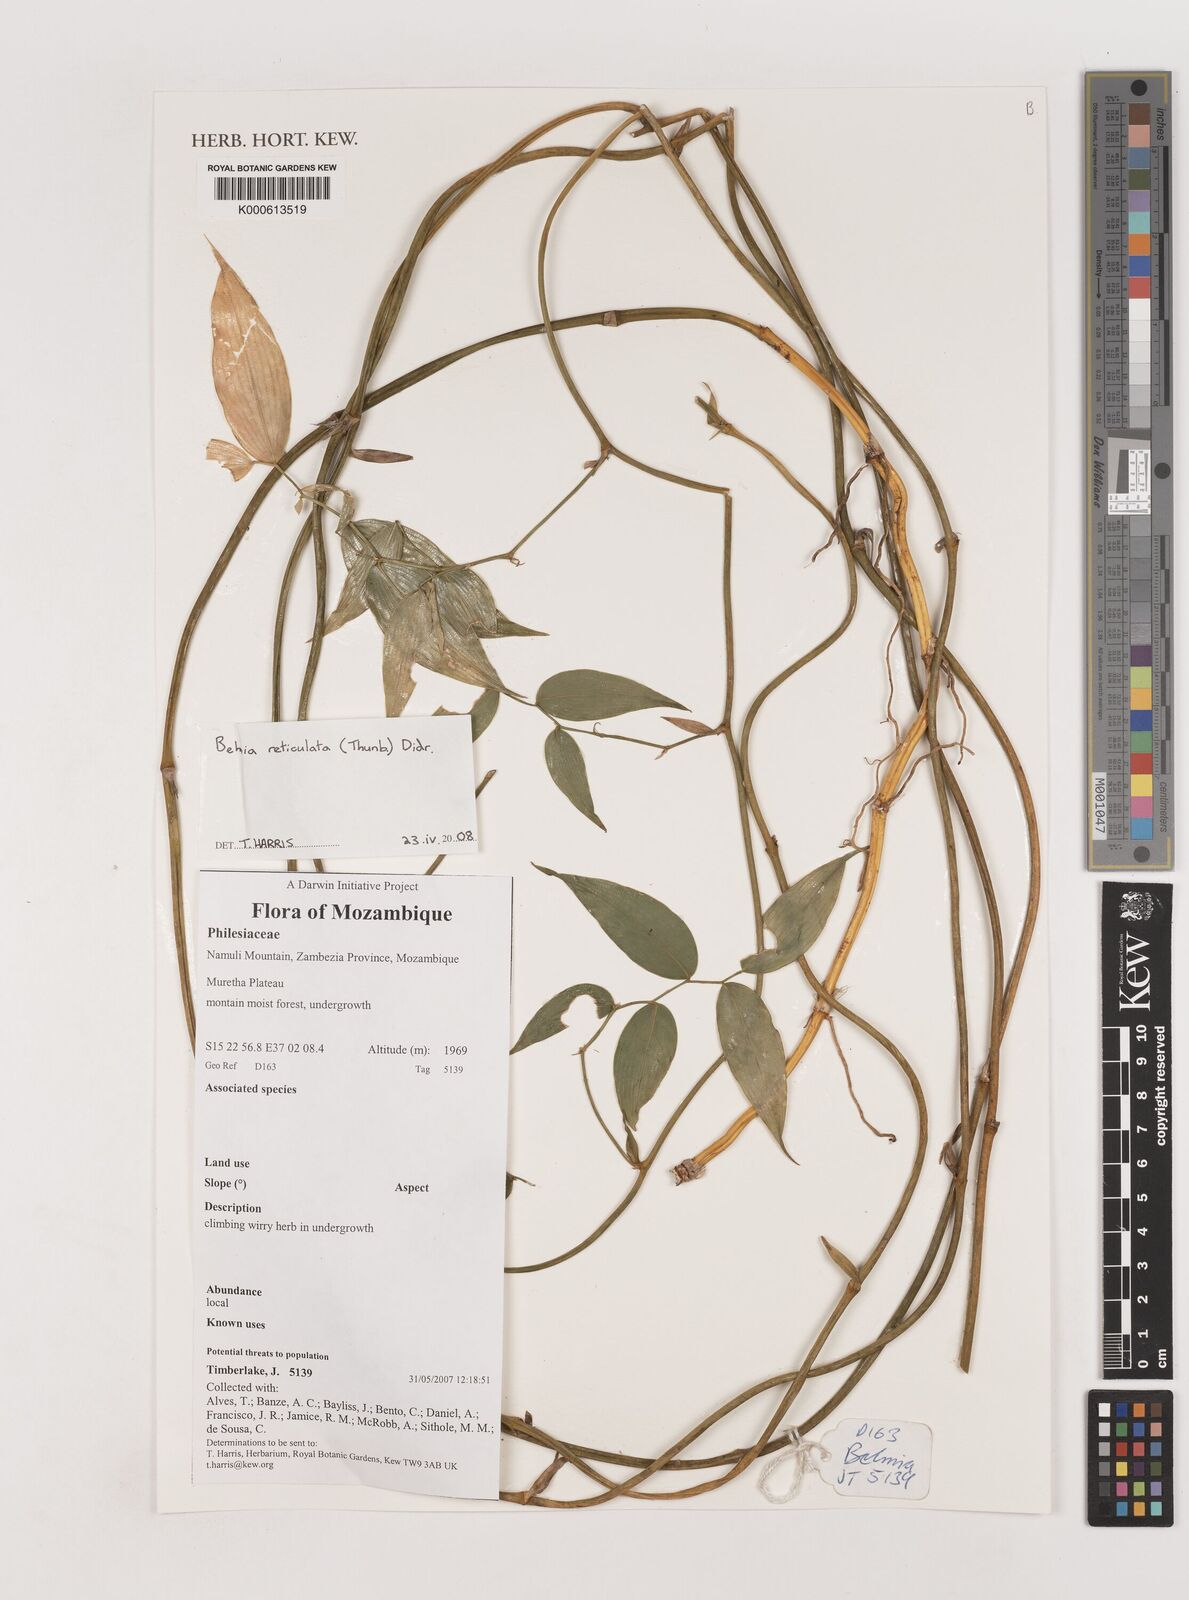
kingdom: Plantae
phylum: Tracheophyta
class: Liliopsida
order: Asparagales
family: Asparagaceae
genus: Behnia
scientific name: Behnia reticulata
